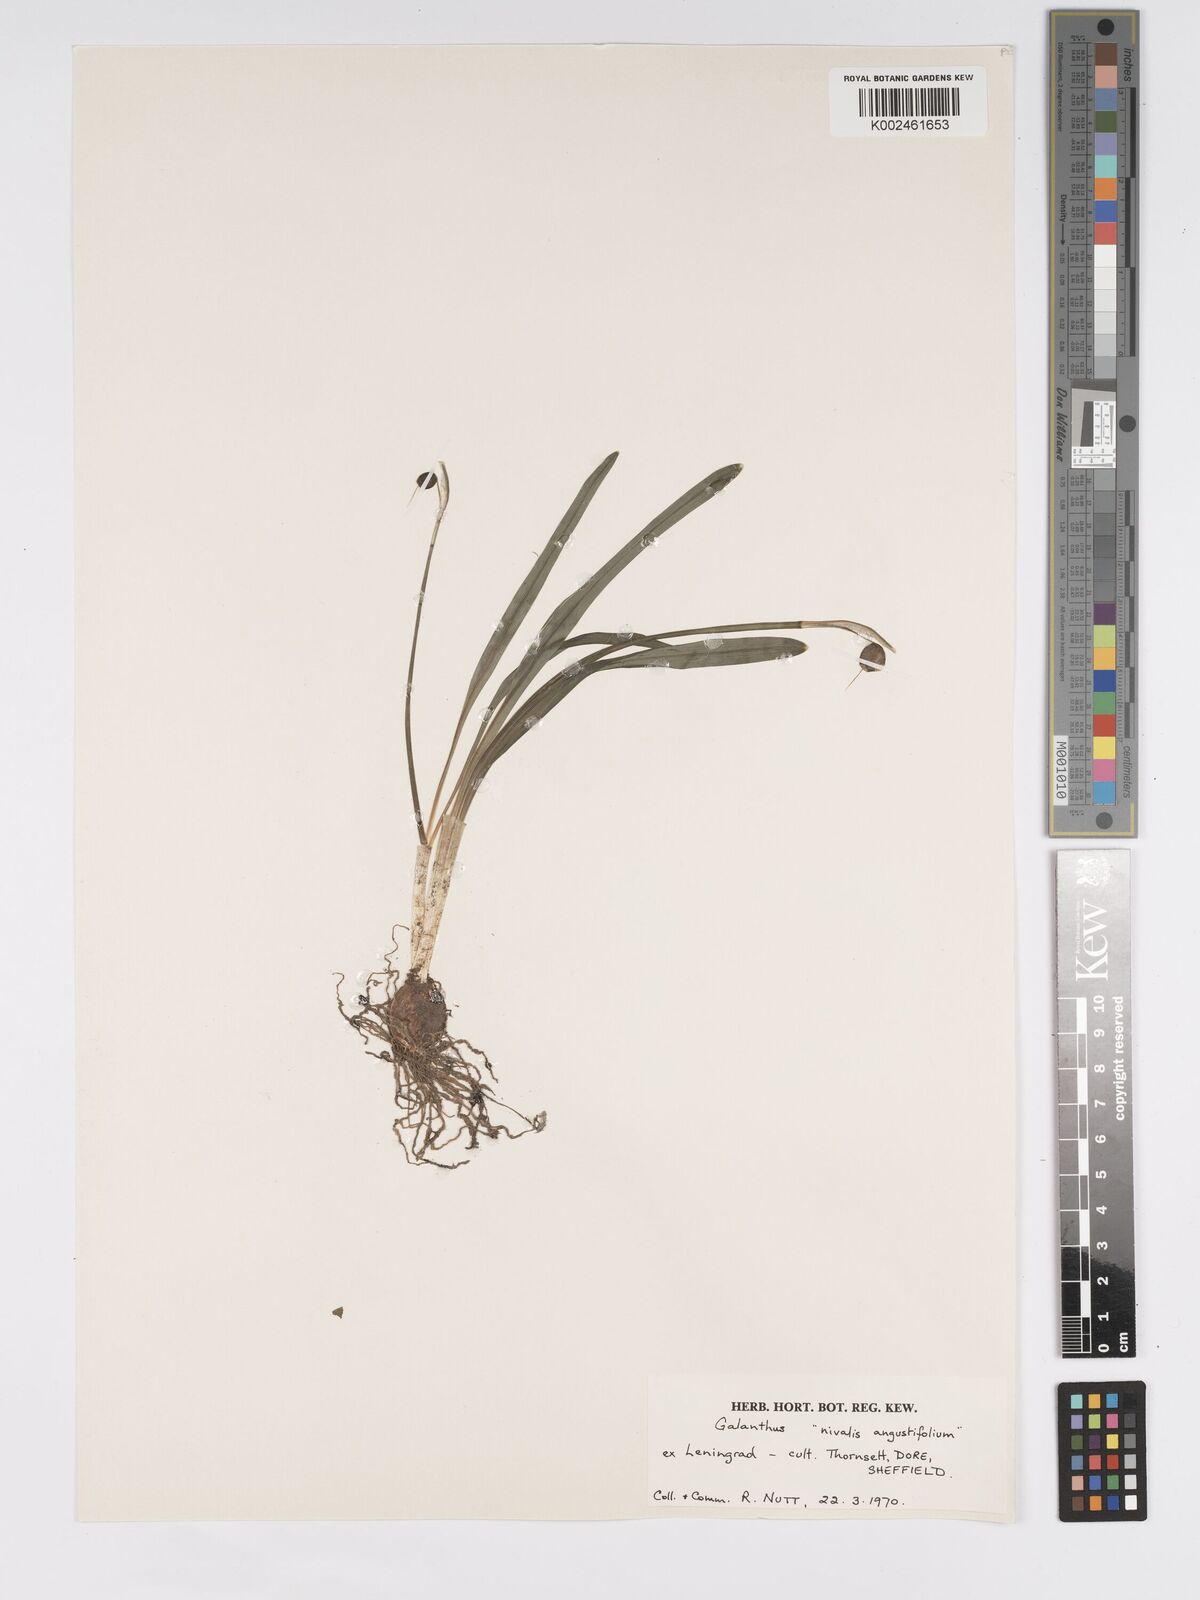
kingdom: Plantae
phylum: Tracheophyta
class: Liliopsida
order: Asparagales
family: Amaryllidaceae
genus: Galanthus
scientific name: Galanthus nivalis
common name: Snowdrop
